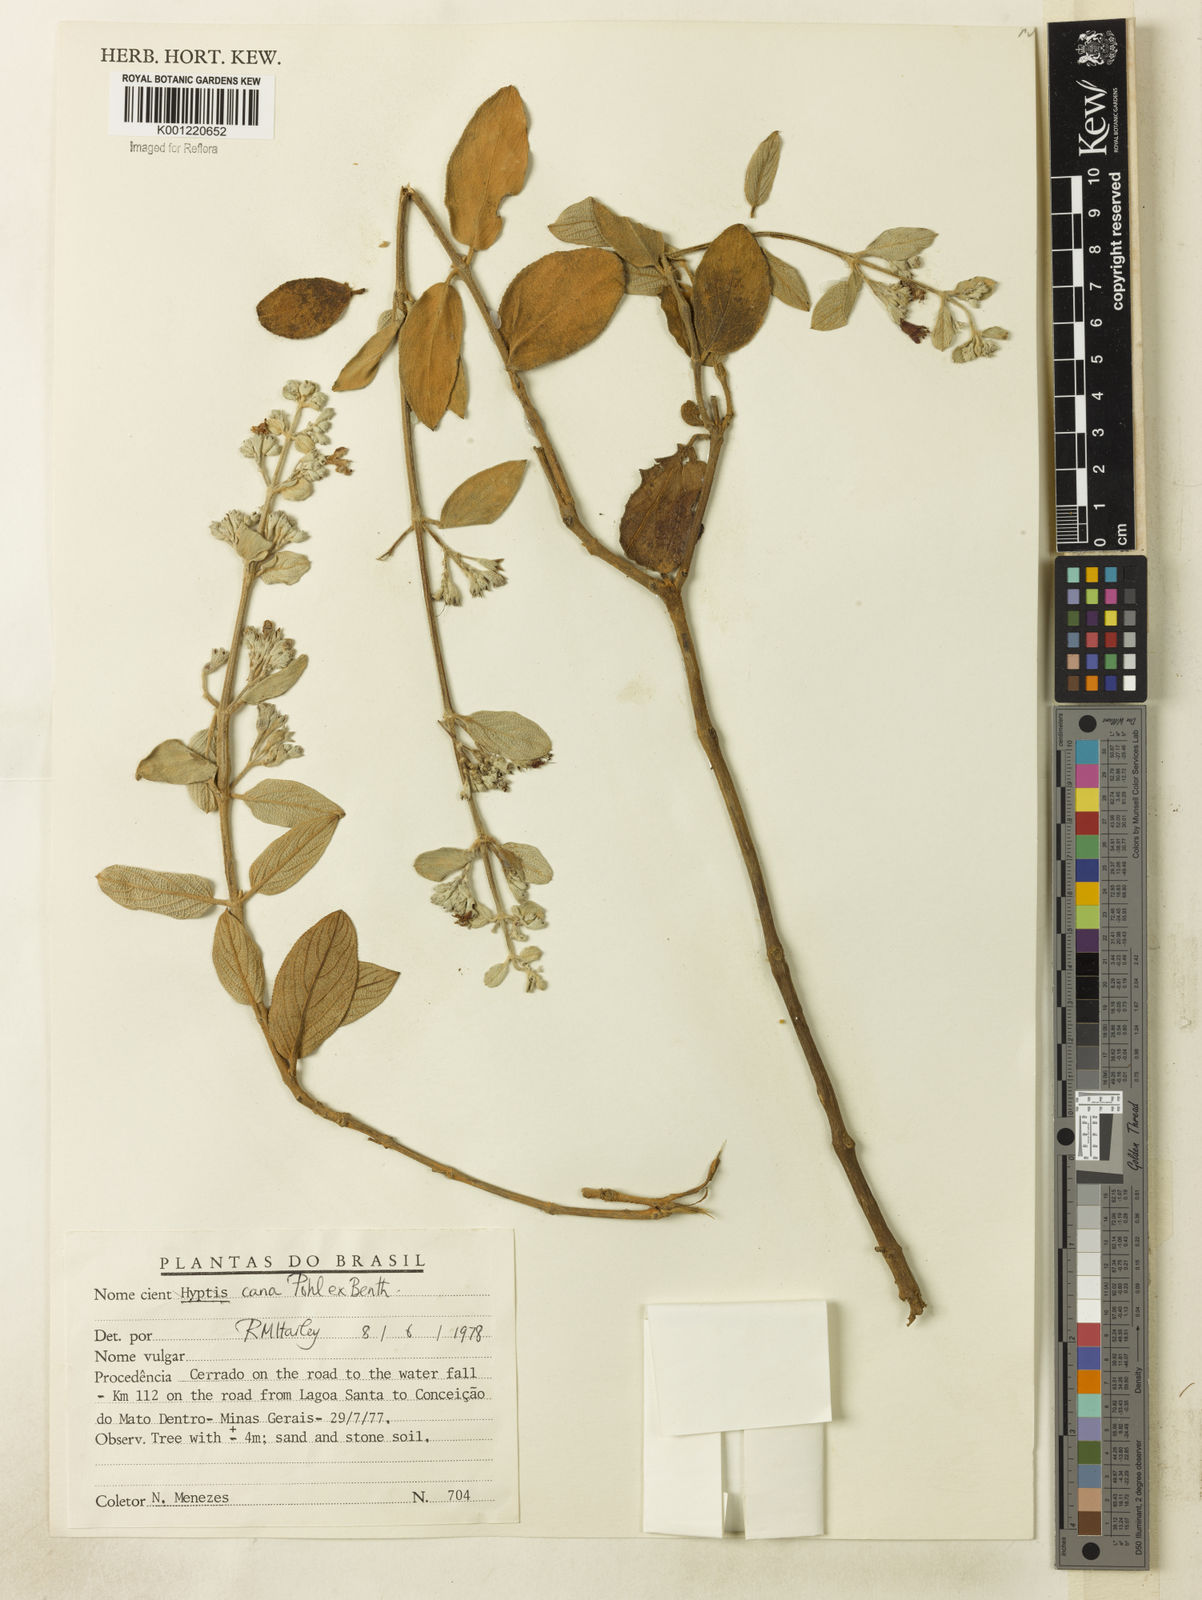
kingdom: Plantae
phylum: Tracheophyta
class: Magnoliopsida
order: Lamiales
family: Lamiaceae
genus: Hyptidendron
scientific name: Hyptidendron canum
